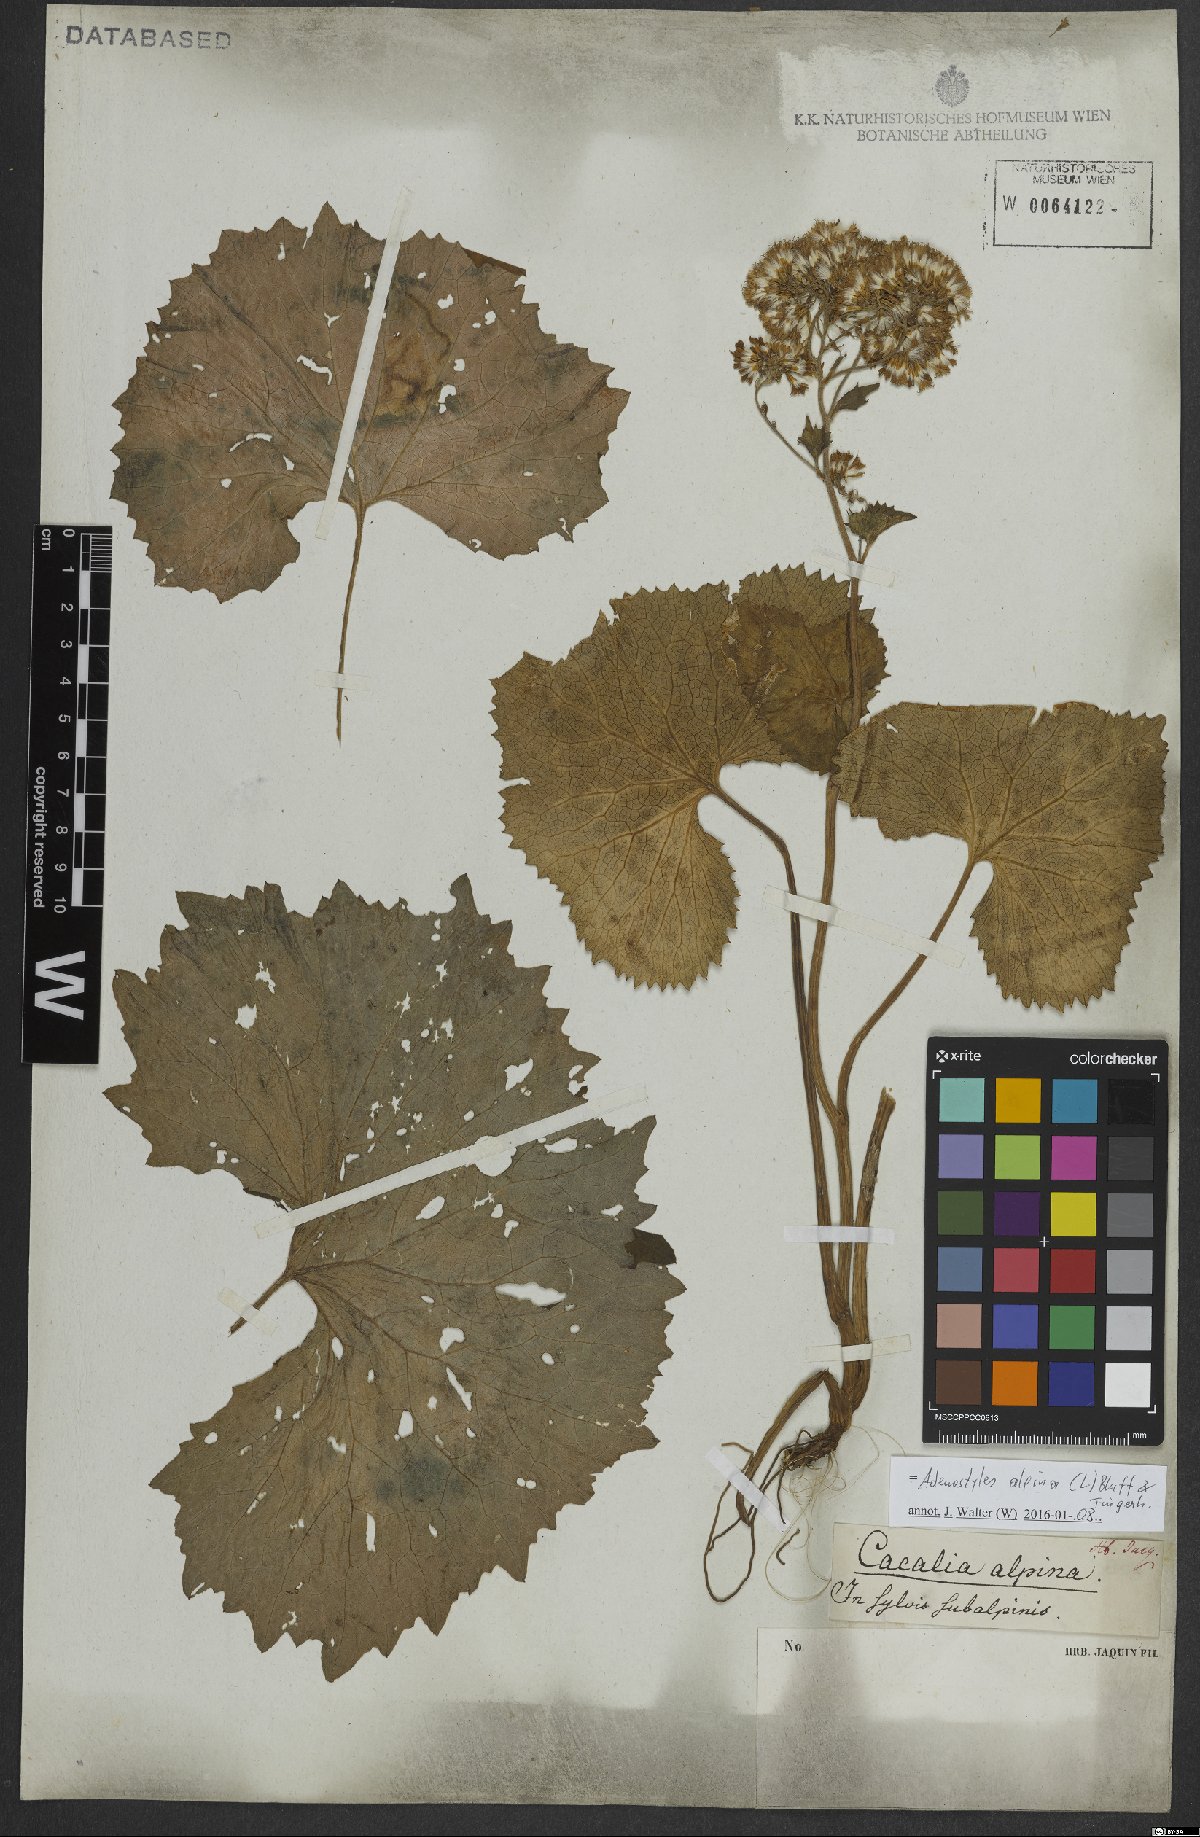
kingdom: Plantae
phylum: Tracheophyta
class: Magnoliopsida
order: Asterales
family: Asteraceae
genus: Adenostyles
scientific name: Adenostyles alpina
